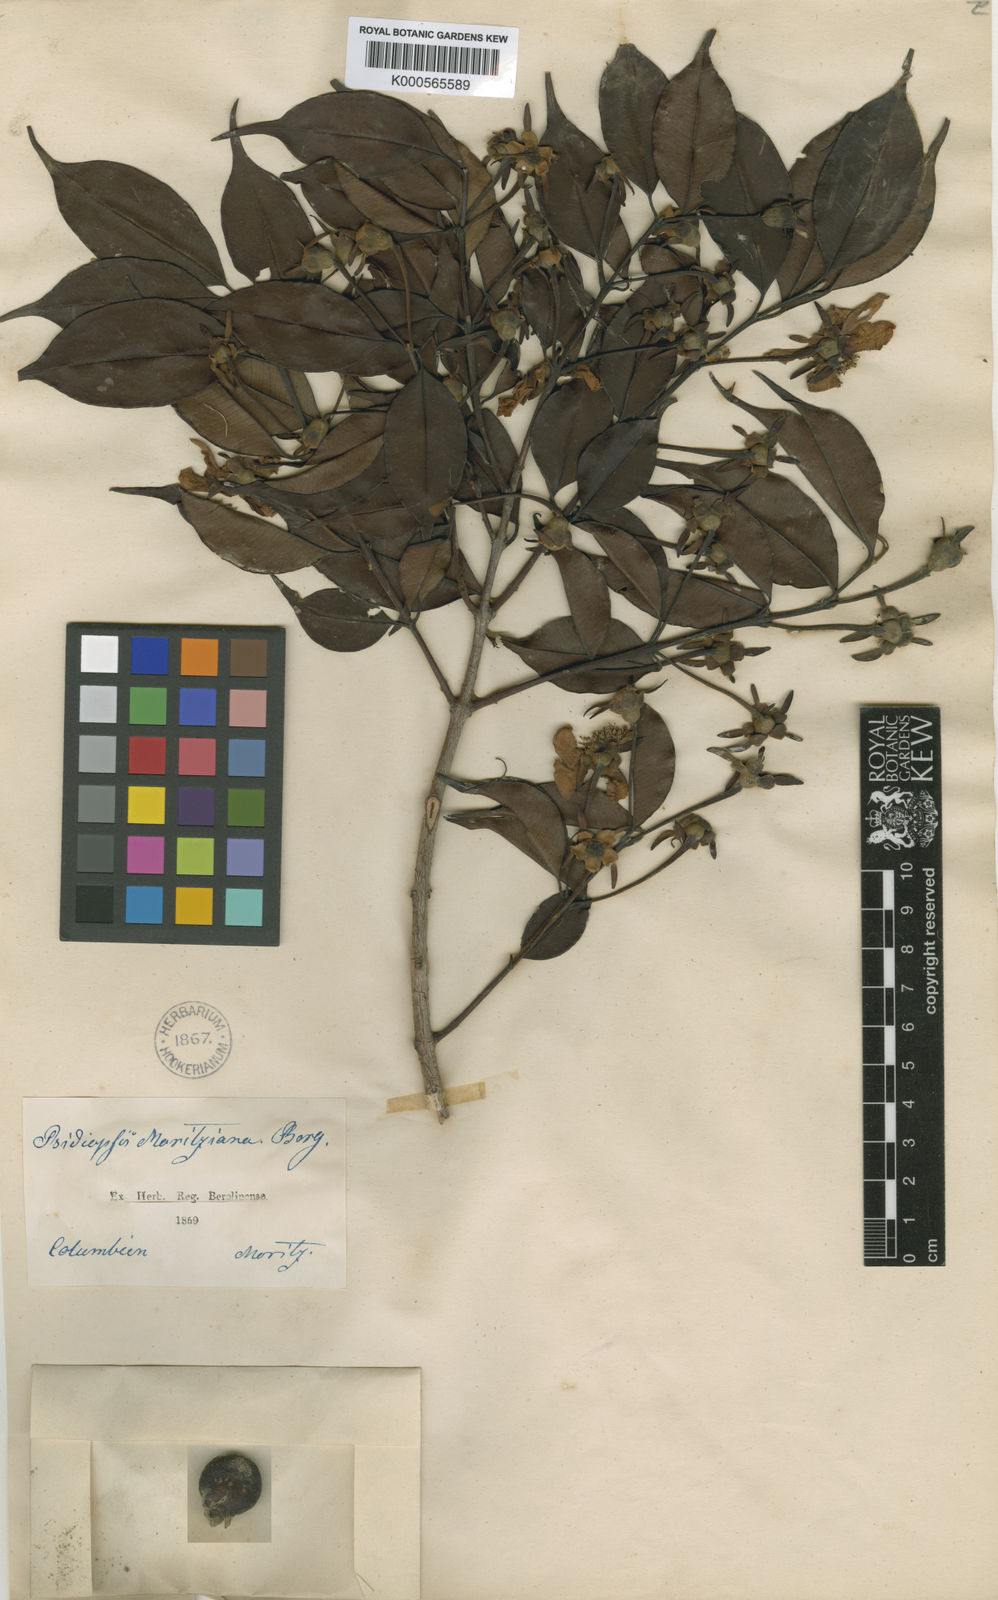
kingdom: Plantae
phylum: Tracheophyta
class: Magnoliopsida
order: Myrtales
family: Myrtaceae
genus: Calycolpus
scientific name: Calycolpus moritzianus
